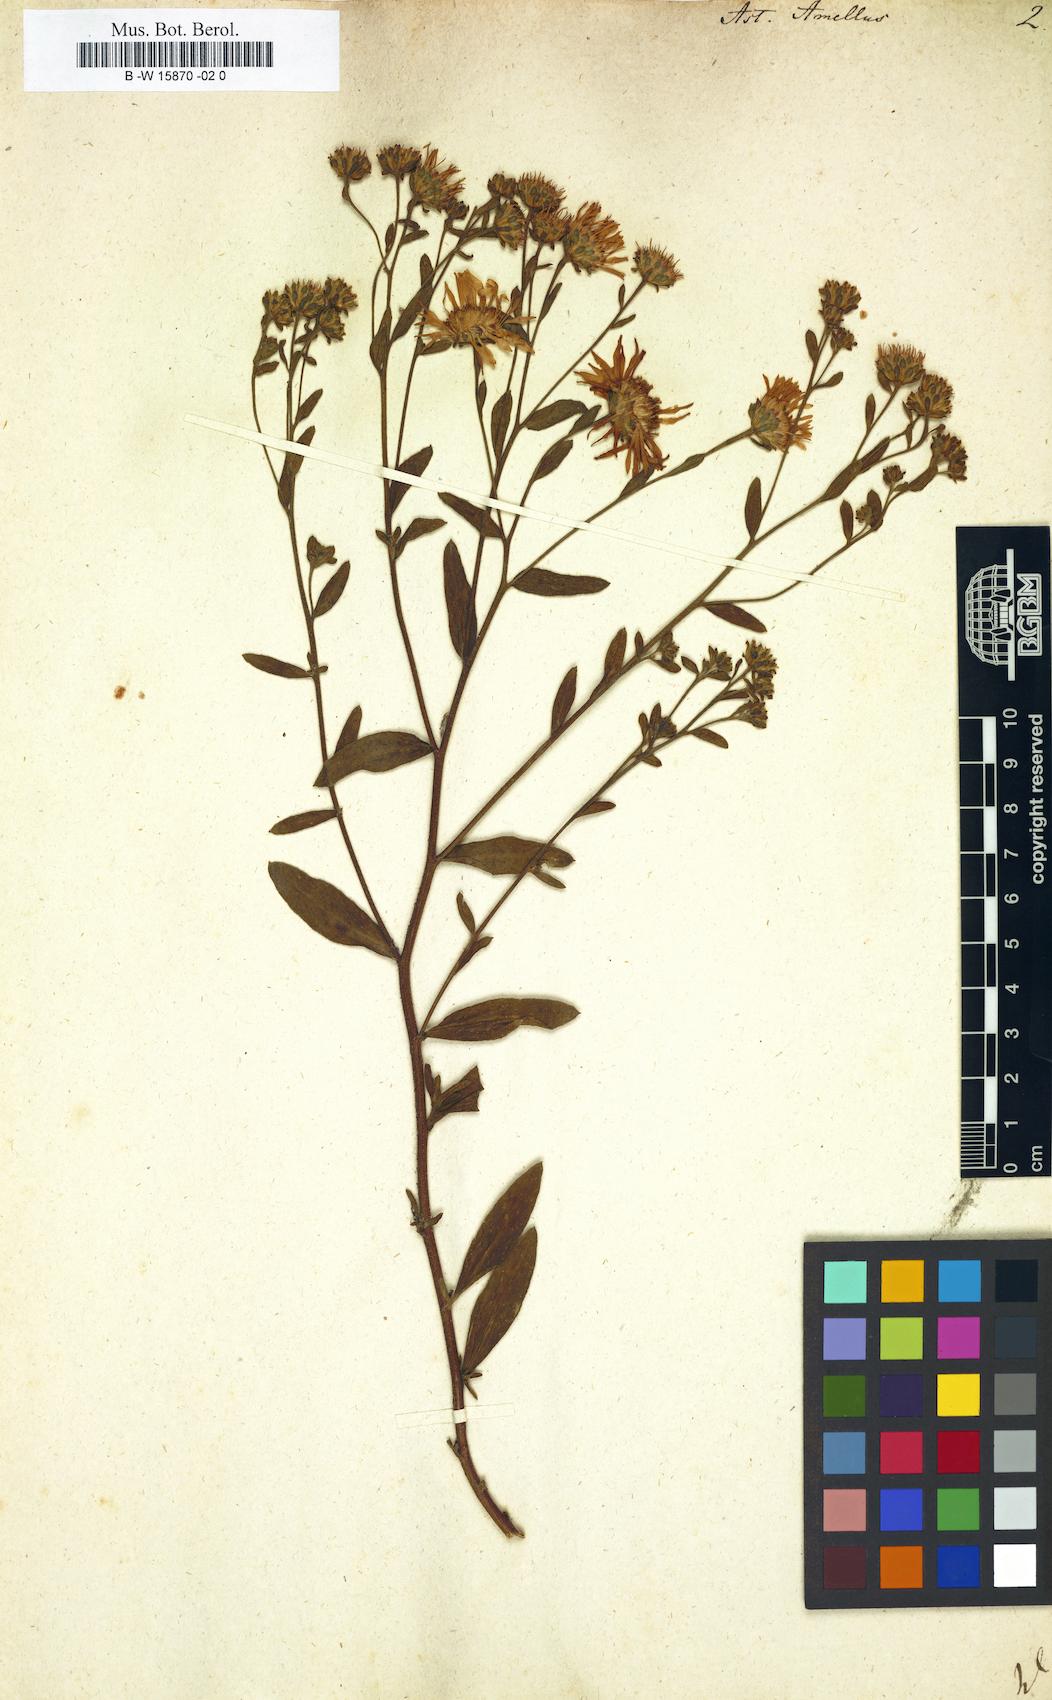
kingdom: Plantae
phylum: Tracheophyta
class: Magnoliopsida
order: Asterales
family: Asteraceae
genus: Aster
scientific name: Aster amellus
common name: European michaelmas daisy
